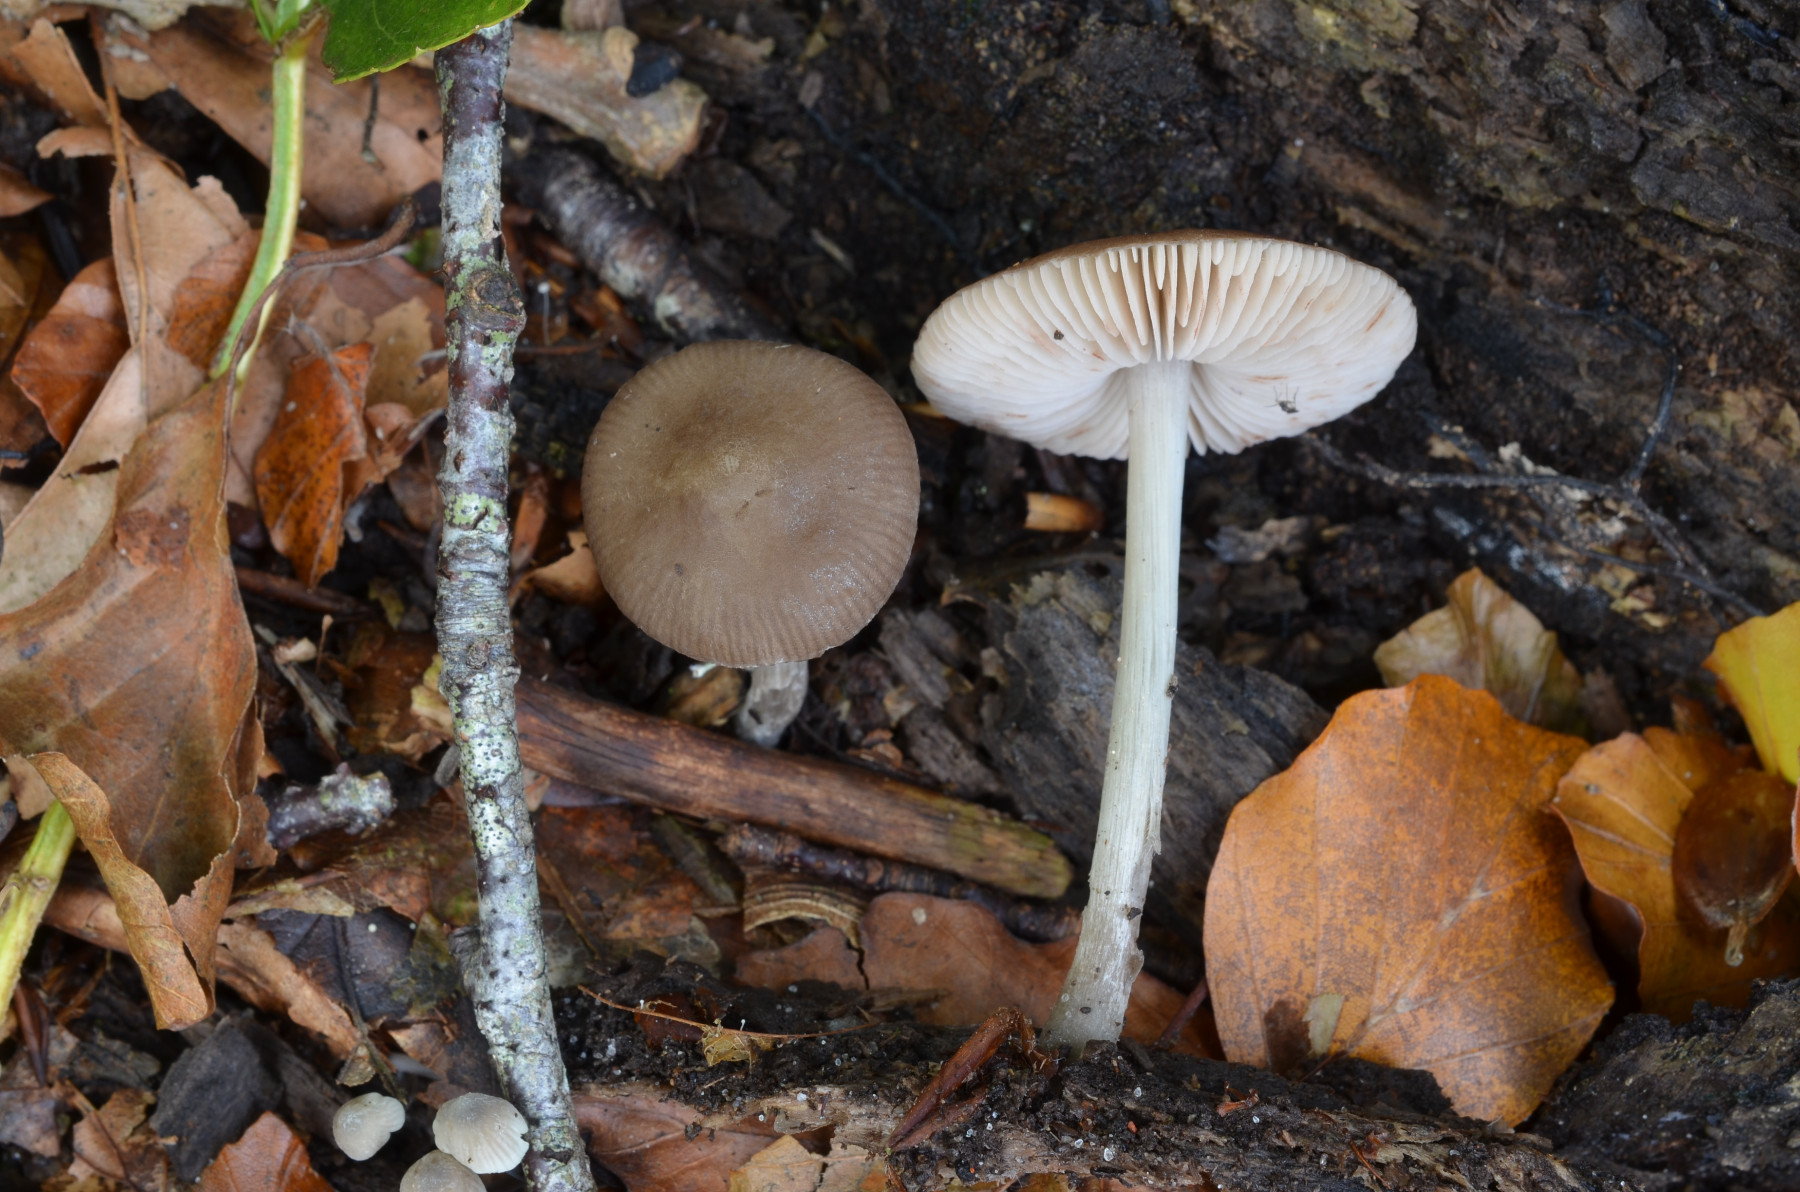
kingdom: Fungi
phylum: Basidiomycota
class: Agaricomycetes
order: Agaricales
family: Pluteaceae
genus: Pluteus
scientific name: Pluteus griseoluridus
